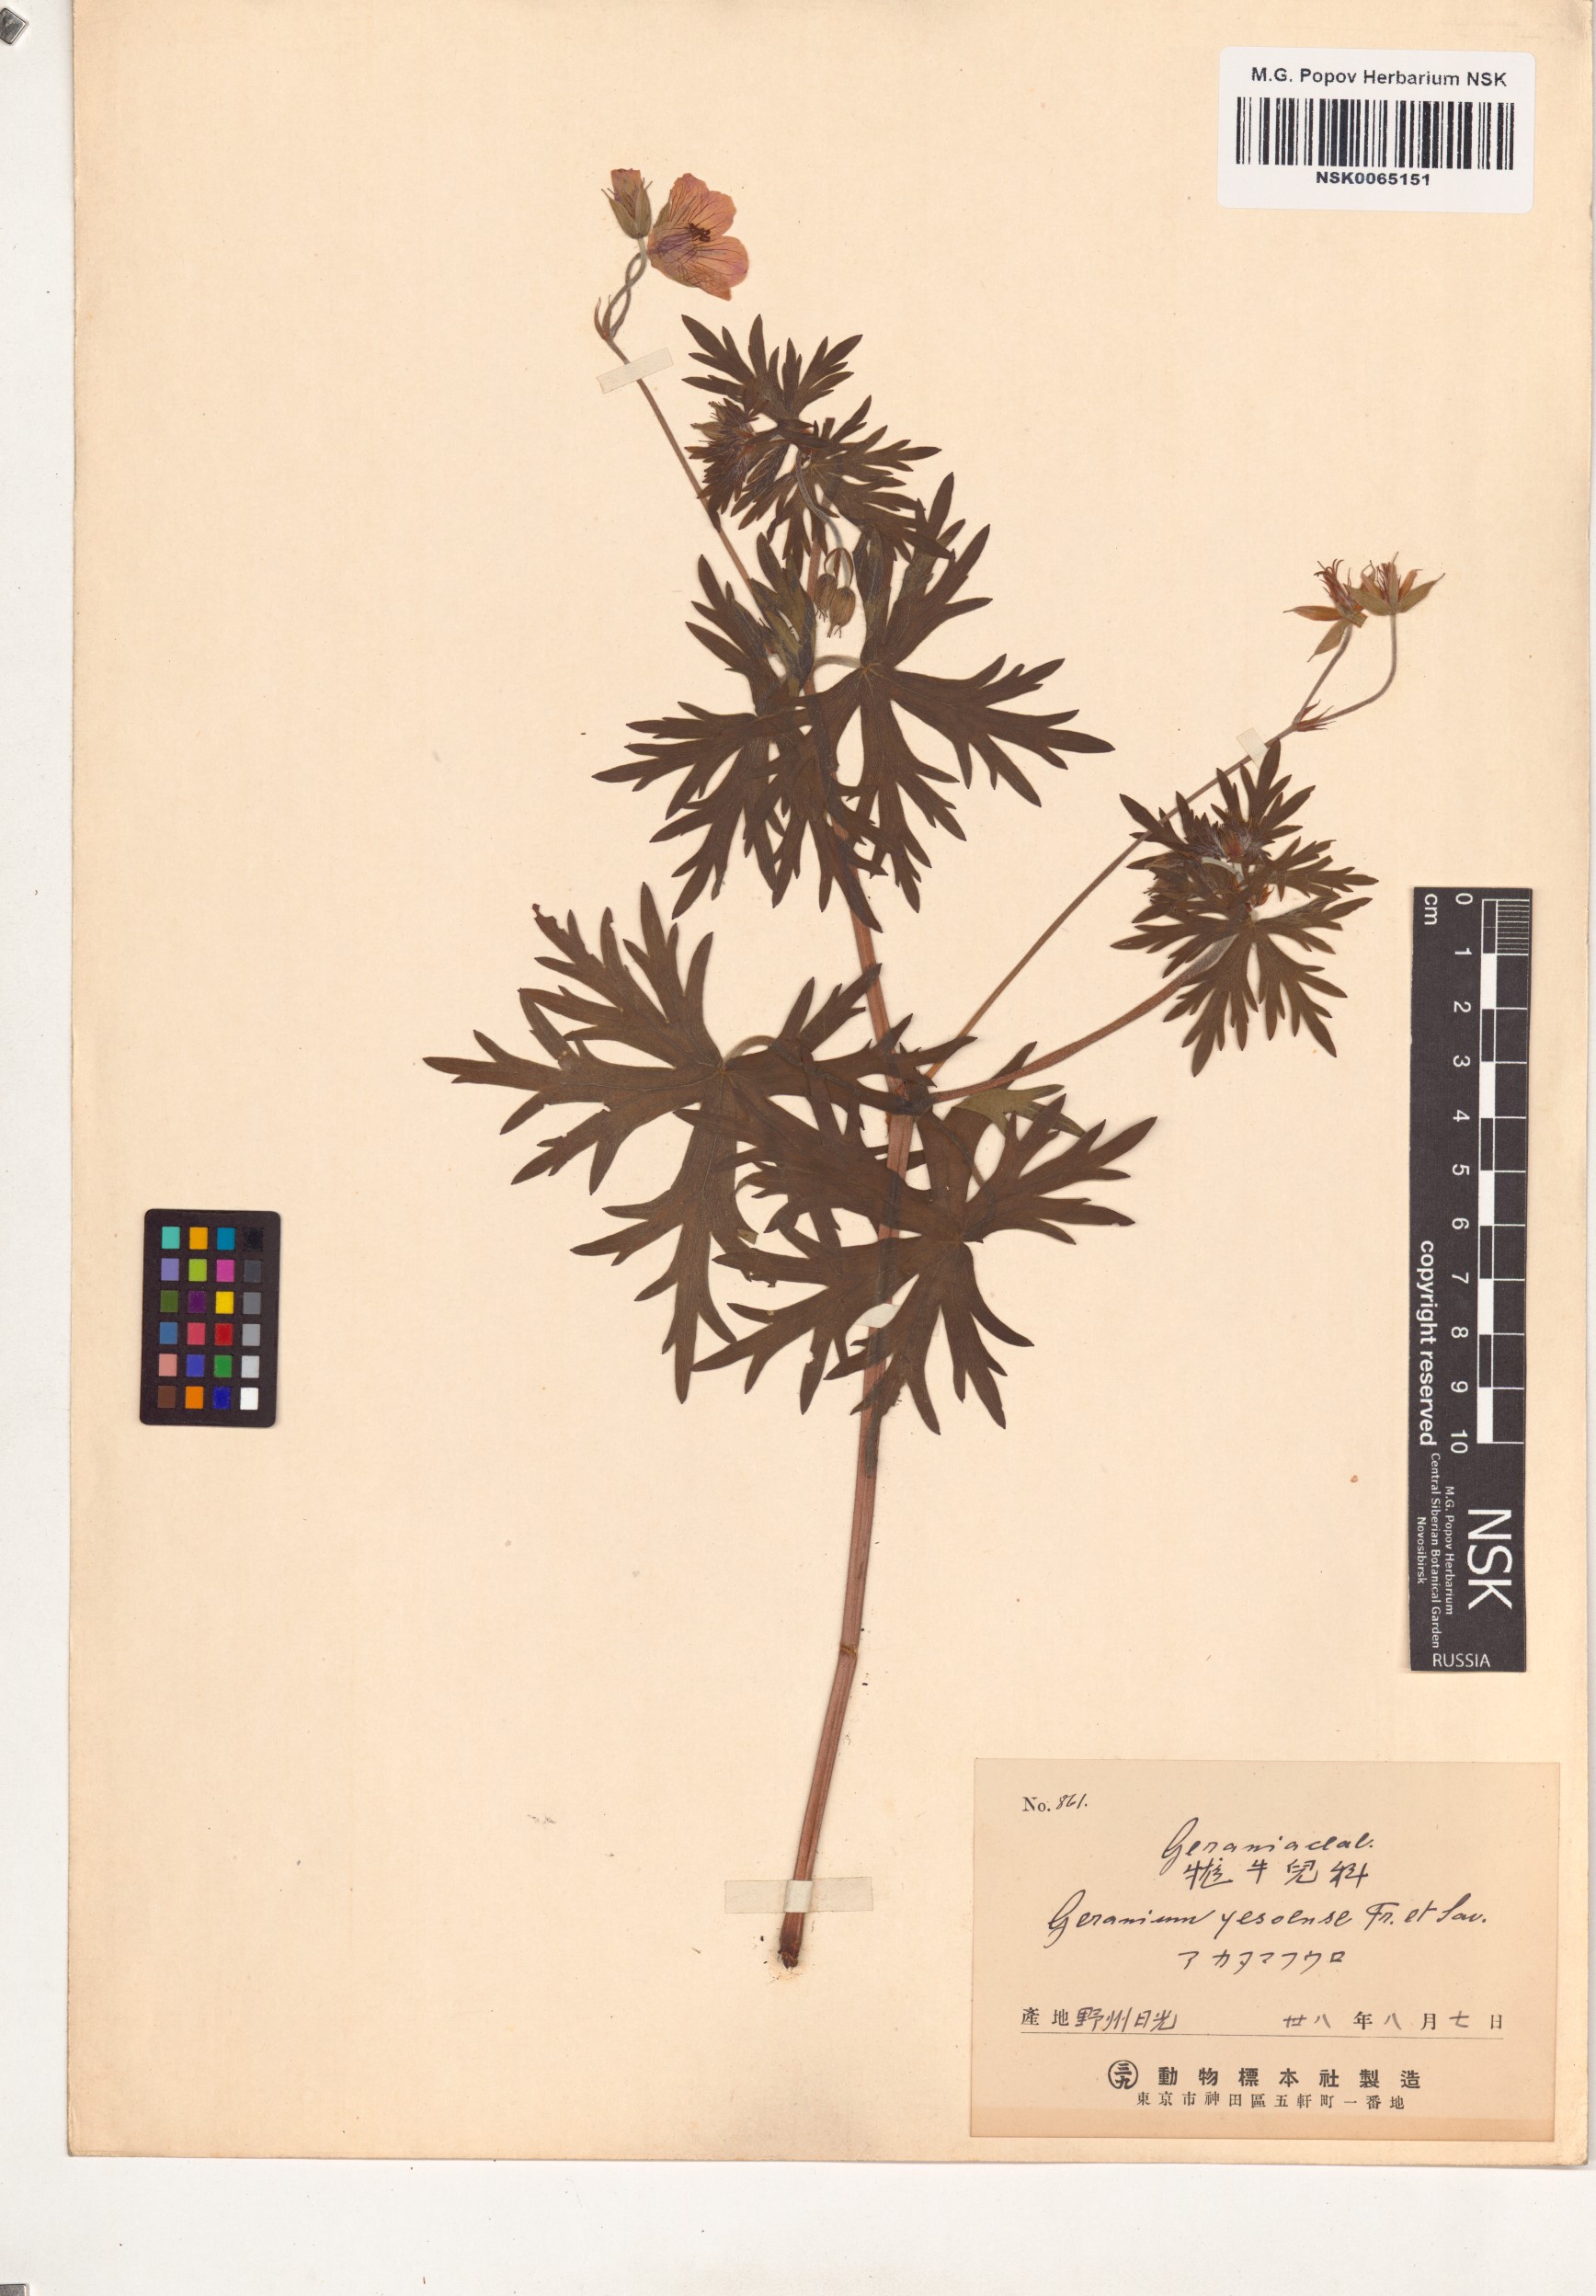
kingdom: Plantae
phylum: Tracheophyta
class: Magnoliopsida
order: Geraniales
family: Geraniaceae
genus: Geranium
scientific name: Geranium yesoense
